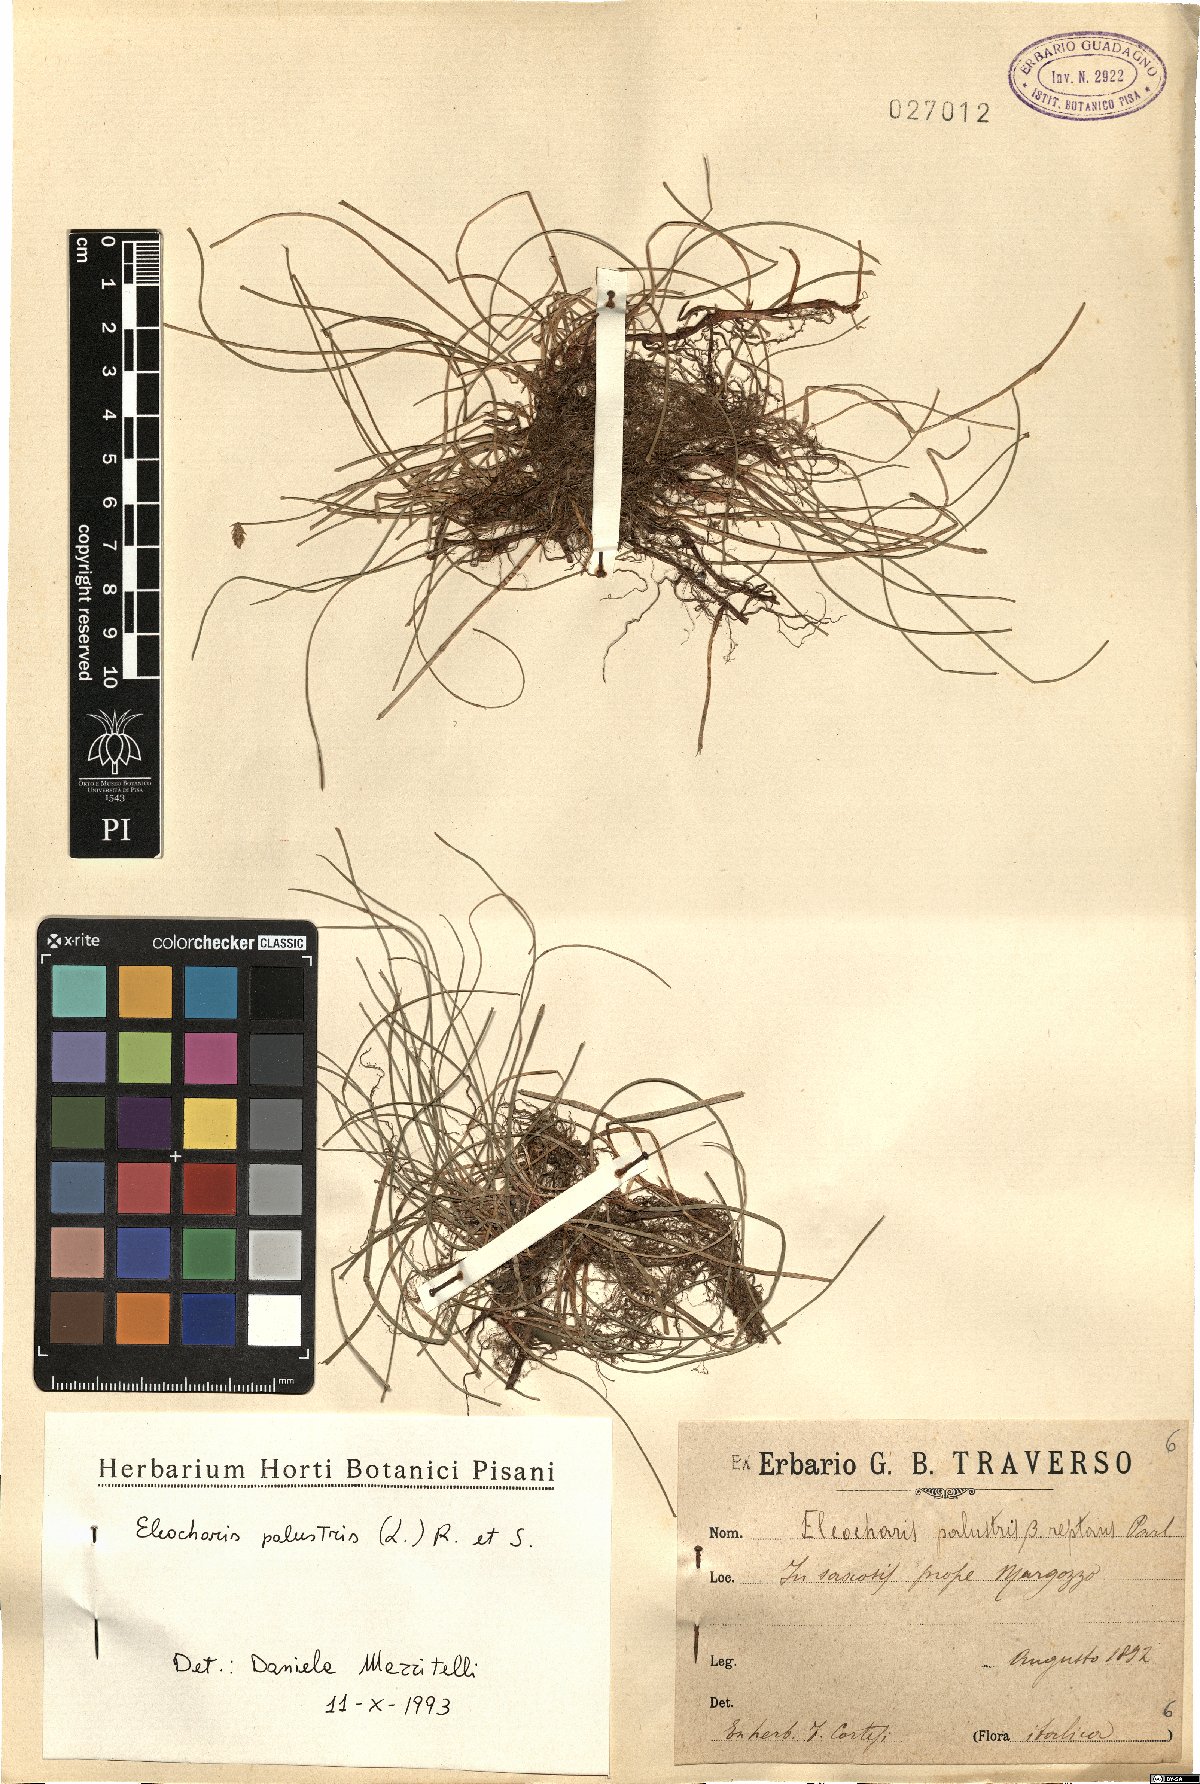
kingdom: Plantae
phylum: Tracheophyta
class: Liliopsida
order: Poales
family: Cyperaceae
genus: Eleocharis
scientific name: Eleocharis palustris
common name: Common spike-rush
